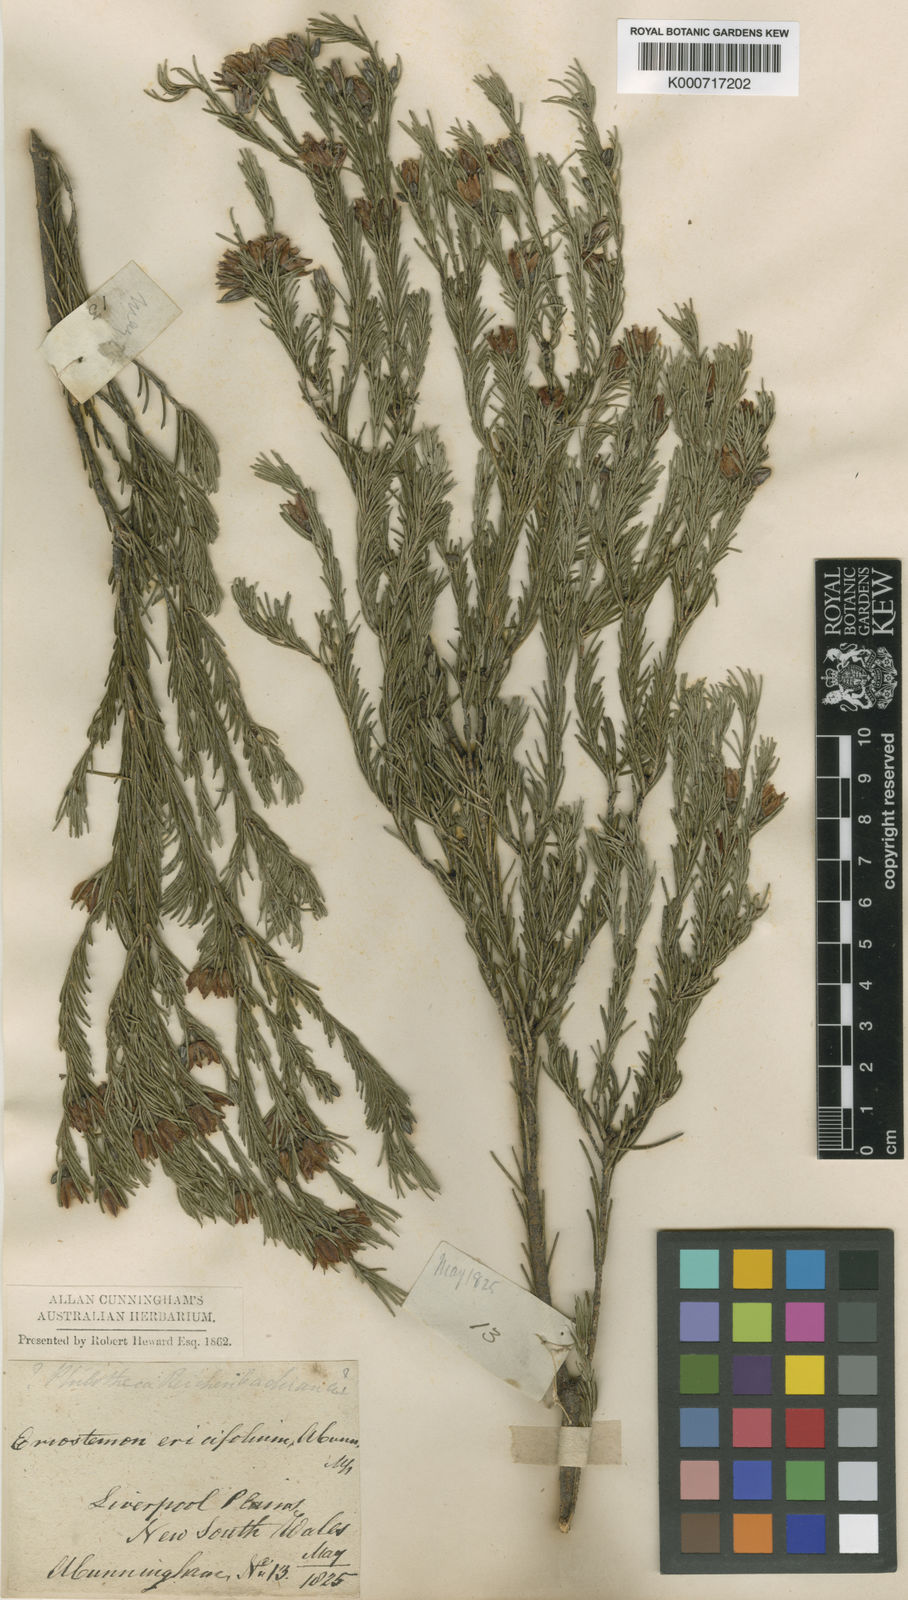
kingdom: Plantae
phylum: Tracheophyta
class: Magnoliopsida
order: Sapindales
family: Rutaceae
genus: Philotheca
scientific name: Philotheca ericifolia
